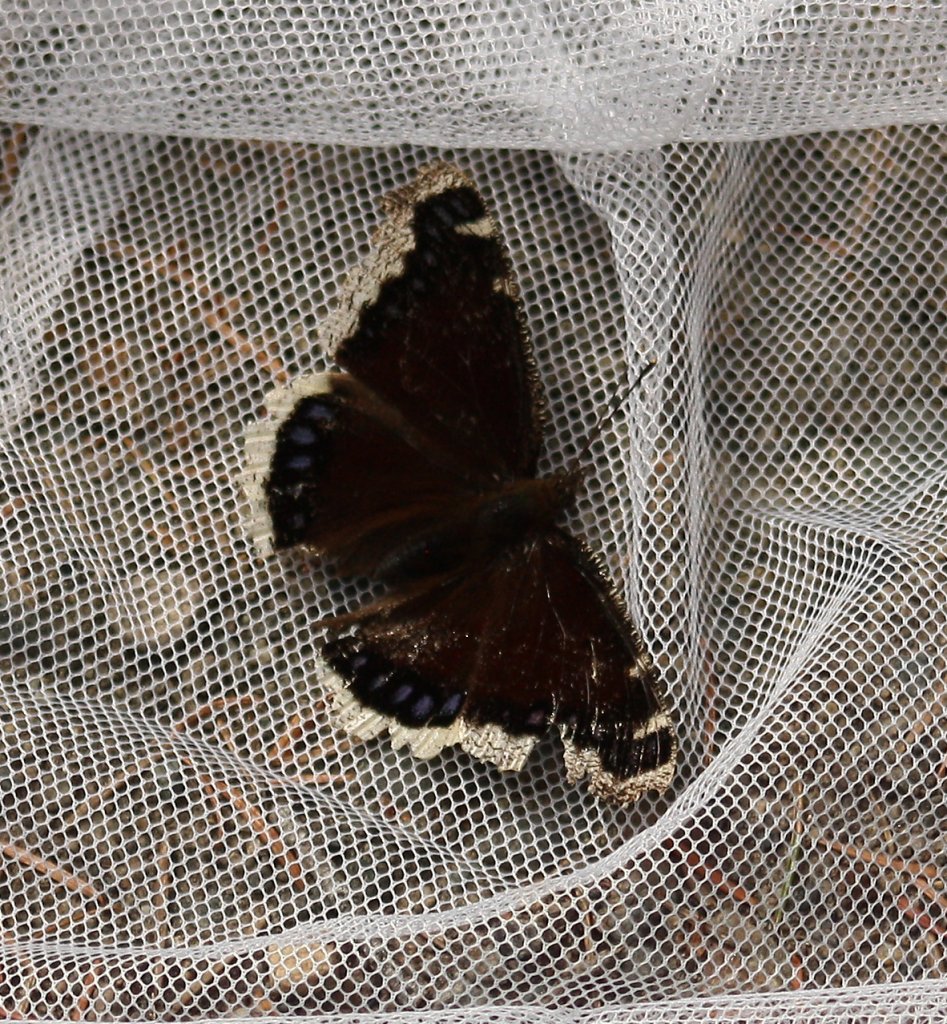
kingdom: Animalia
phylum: Arthropoda
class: Insecta
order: Lepidoptera
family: Nymphalidae
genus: Nymphalis
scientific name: Nymphalis antiopa
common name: Mourning Cloak
